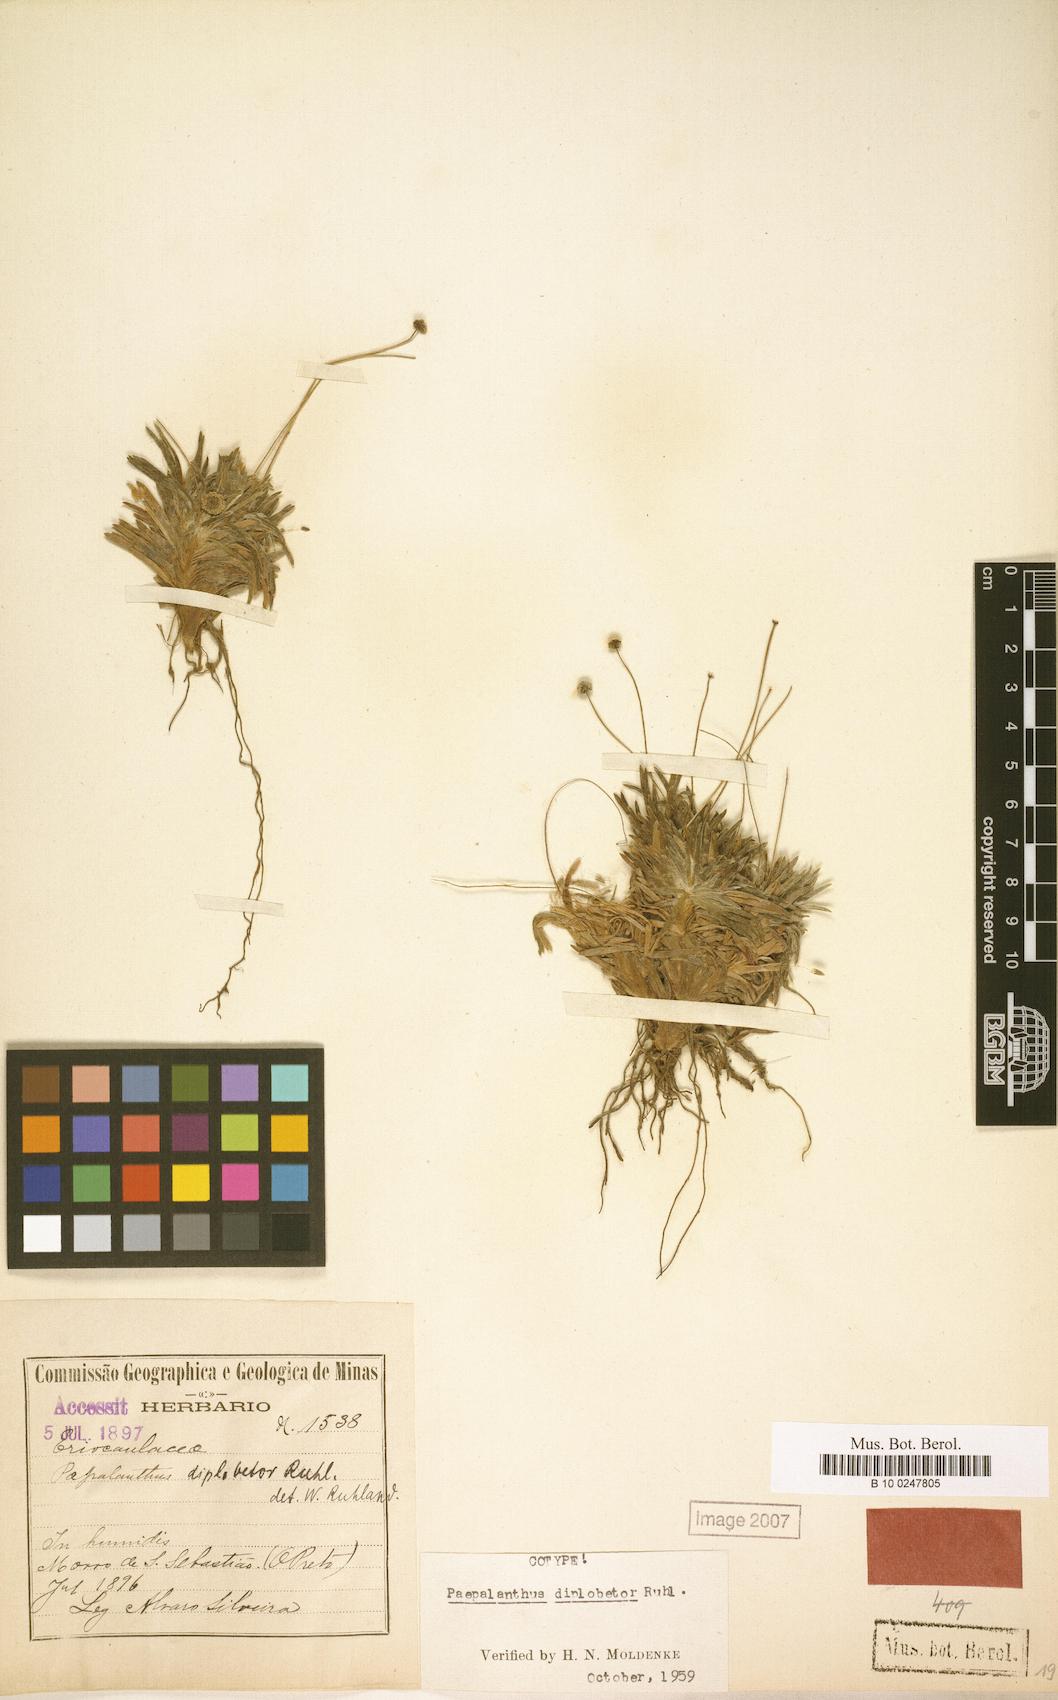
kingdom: Plantae
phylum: Tracheophyta
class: Liliopsida
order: Poales
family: Eriocaulaceae
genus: Paepalanthus
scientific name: Paepalanthus diplobetor
